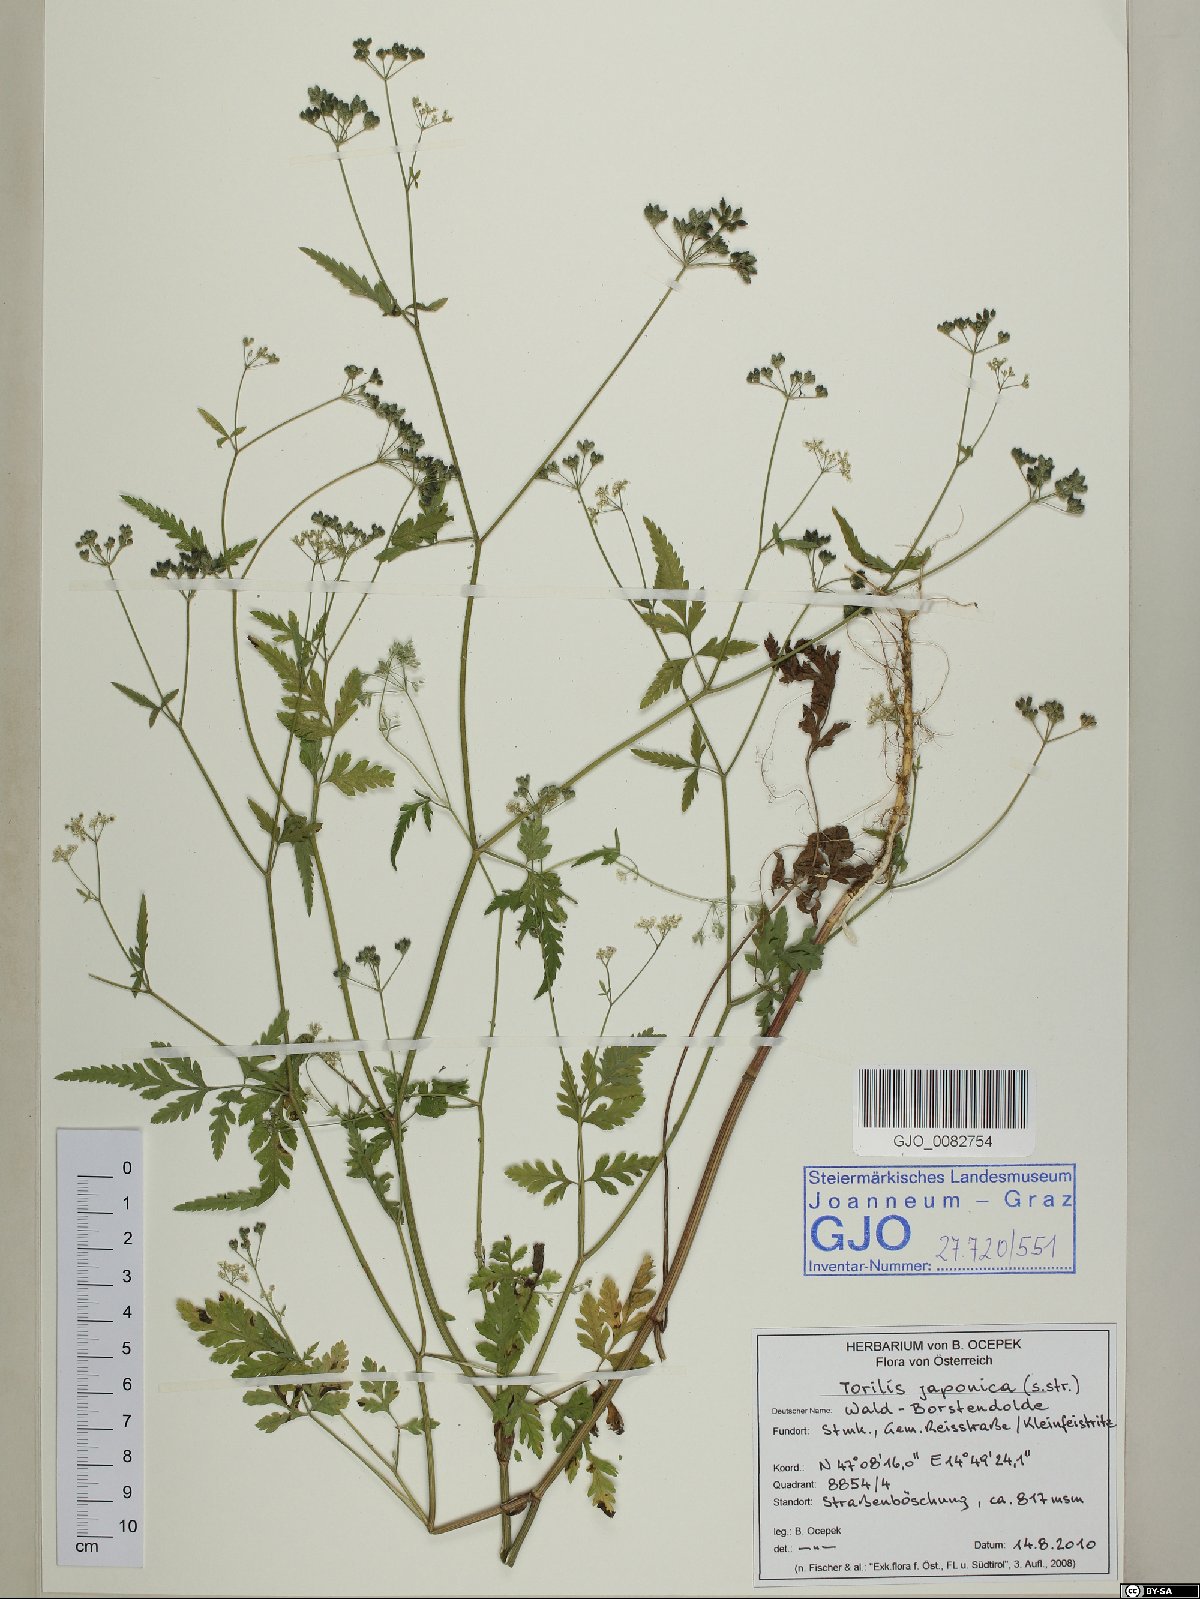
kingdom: Plantae
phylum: Tracheophyta
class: Magnoliopsida
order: Apiales
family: Apiaceae
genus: Torilis
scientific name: Torilis japonica
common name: Upright hedge-parsley
